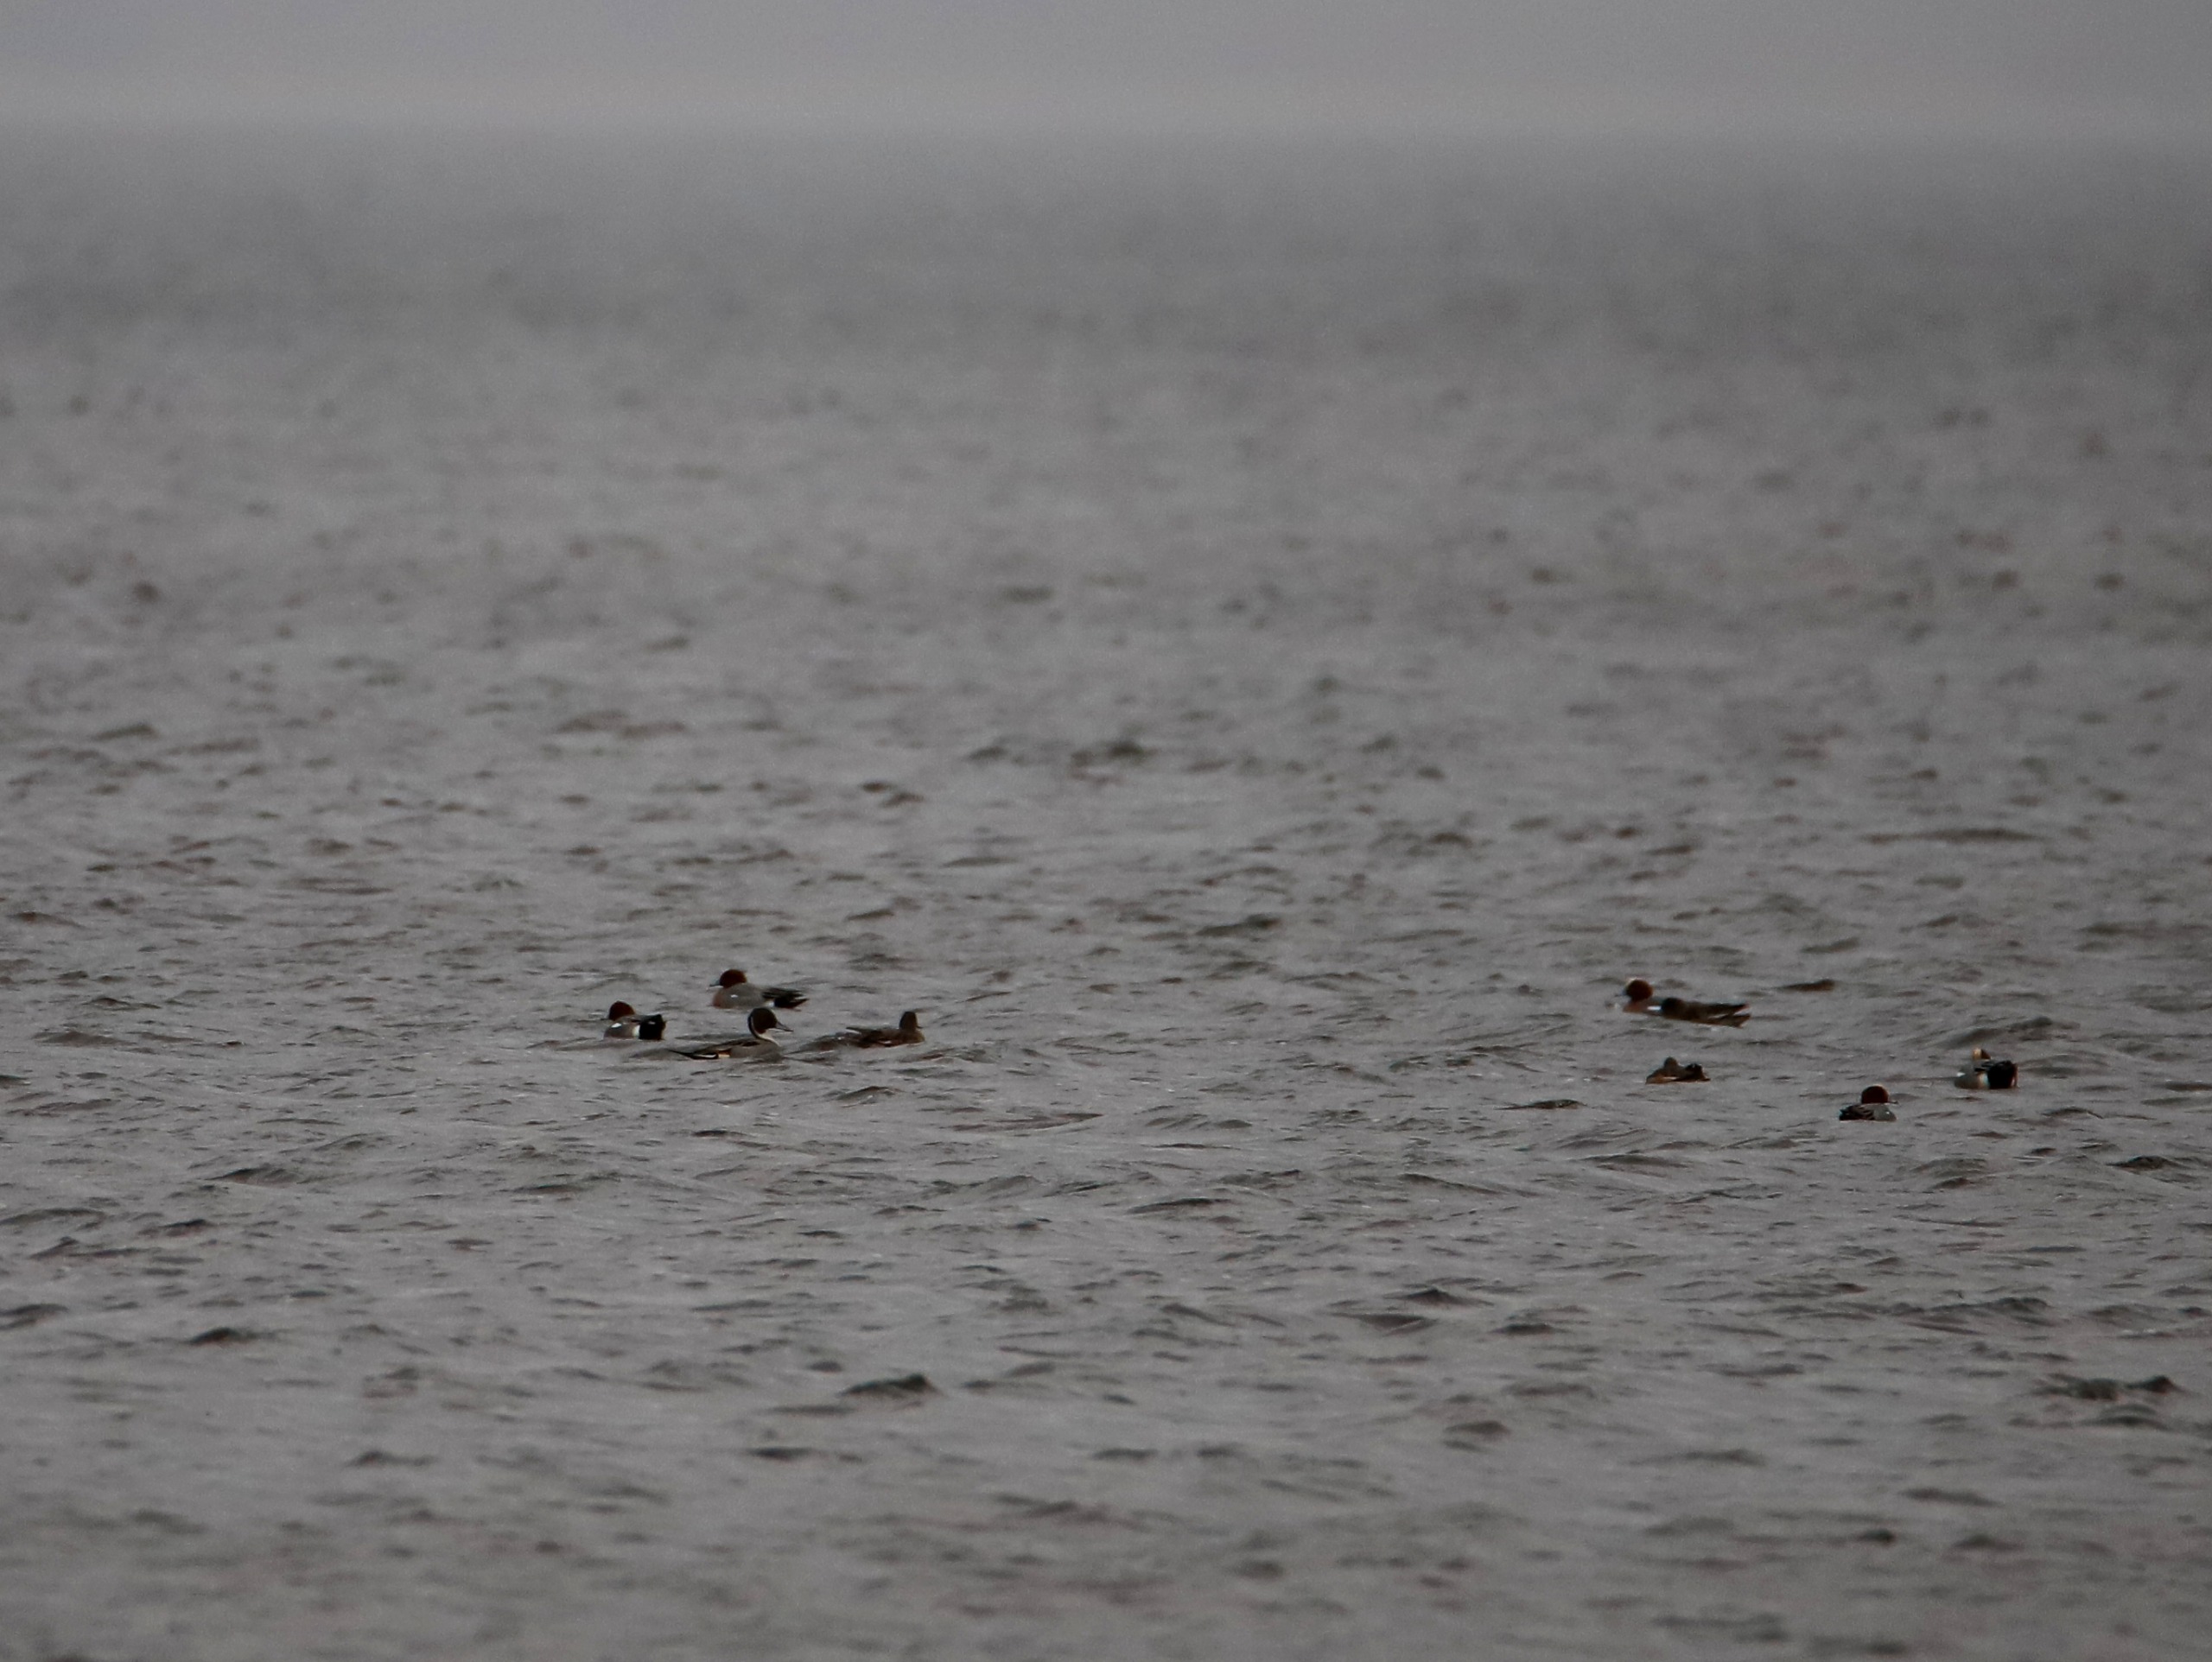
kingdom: Animalia
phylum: Chordata
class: Aves
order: Anseriformes
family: Anatidae
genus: Anas
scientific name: Anas acuta
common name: Spidsand
